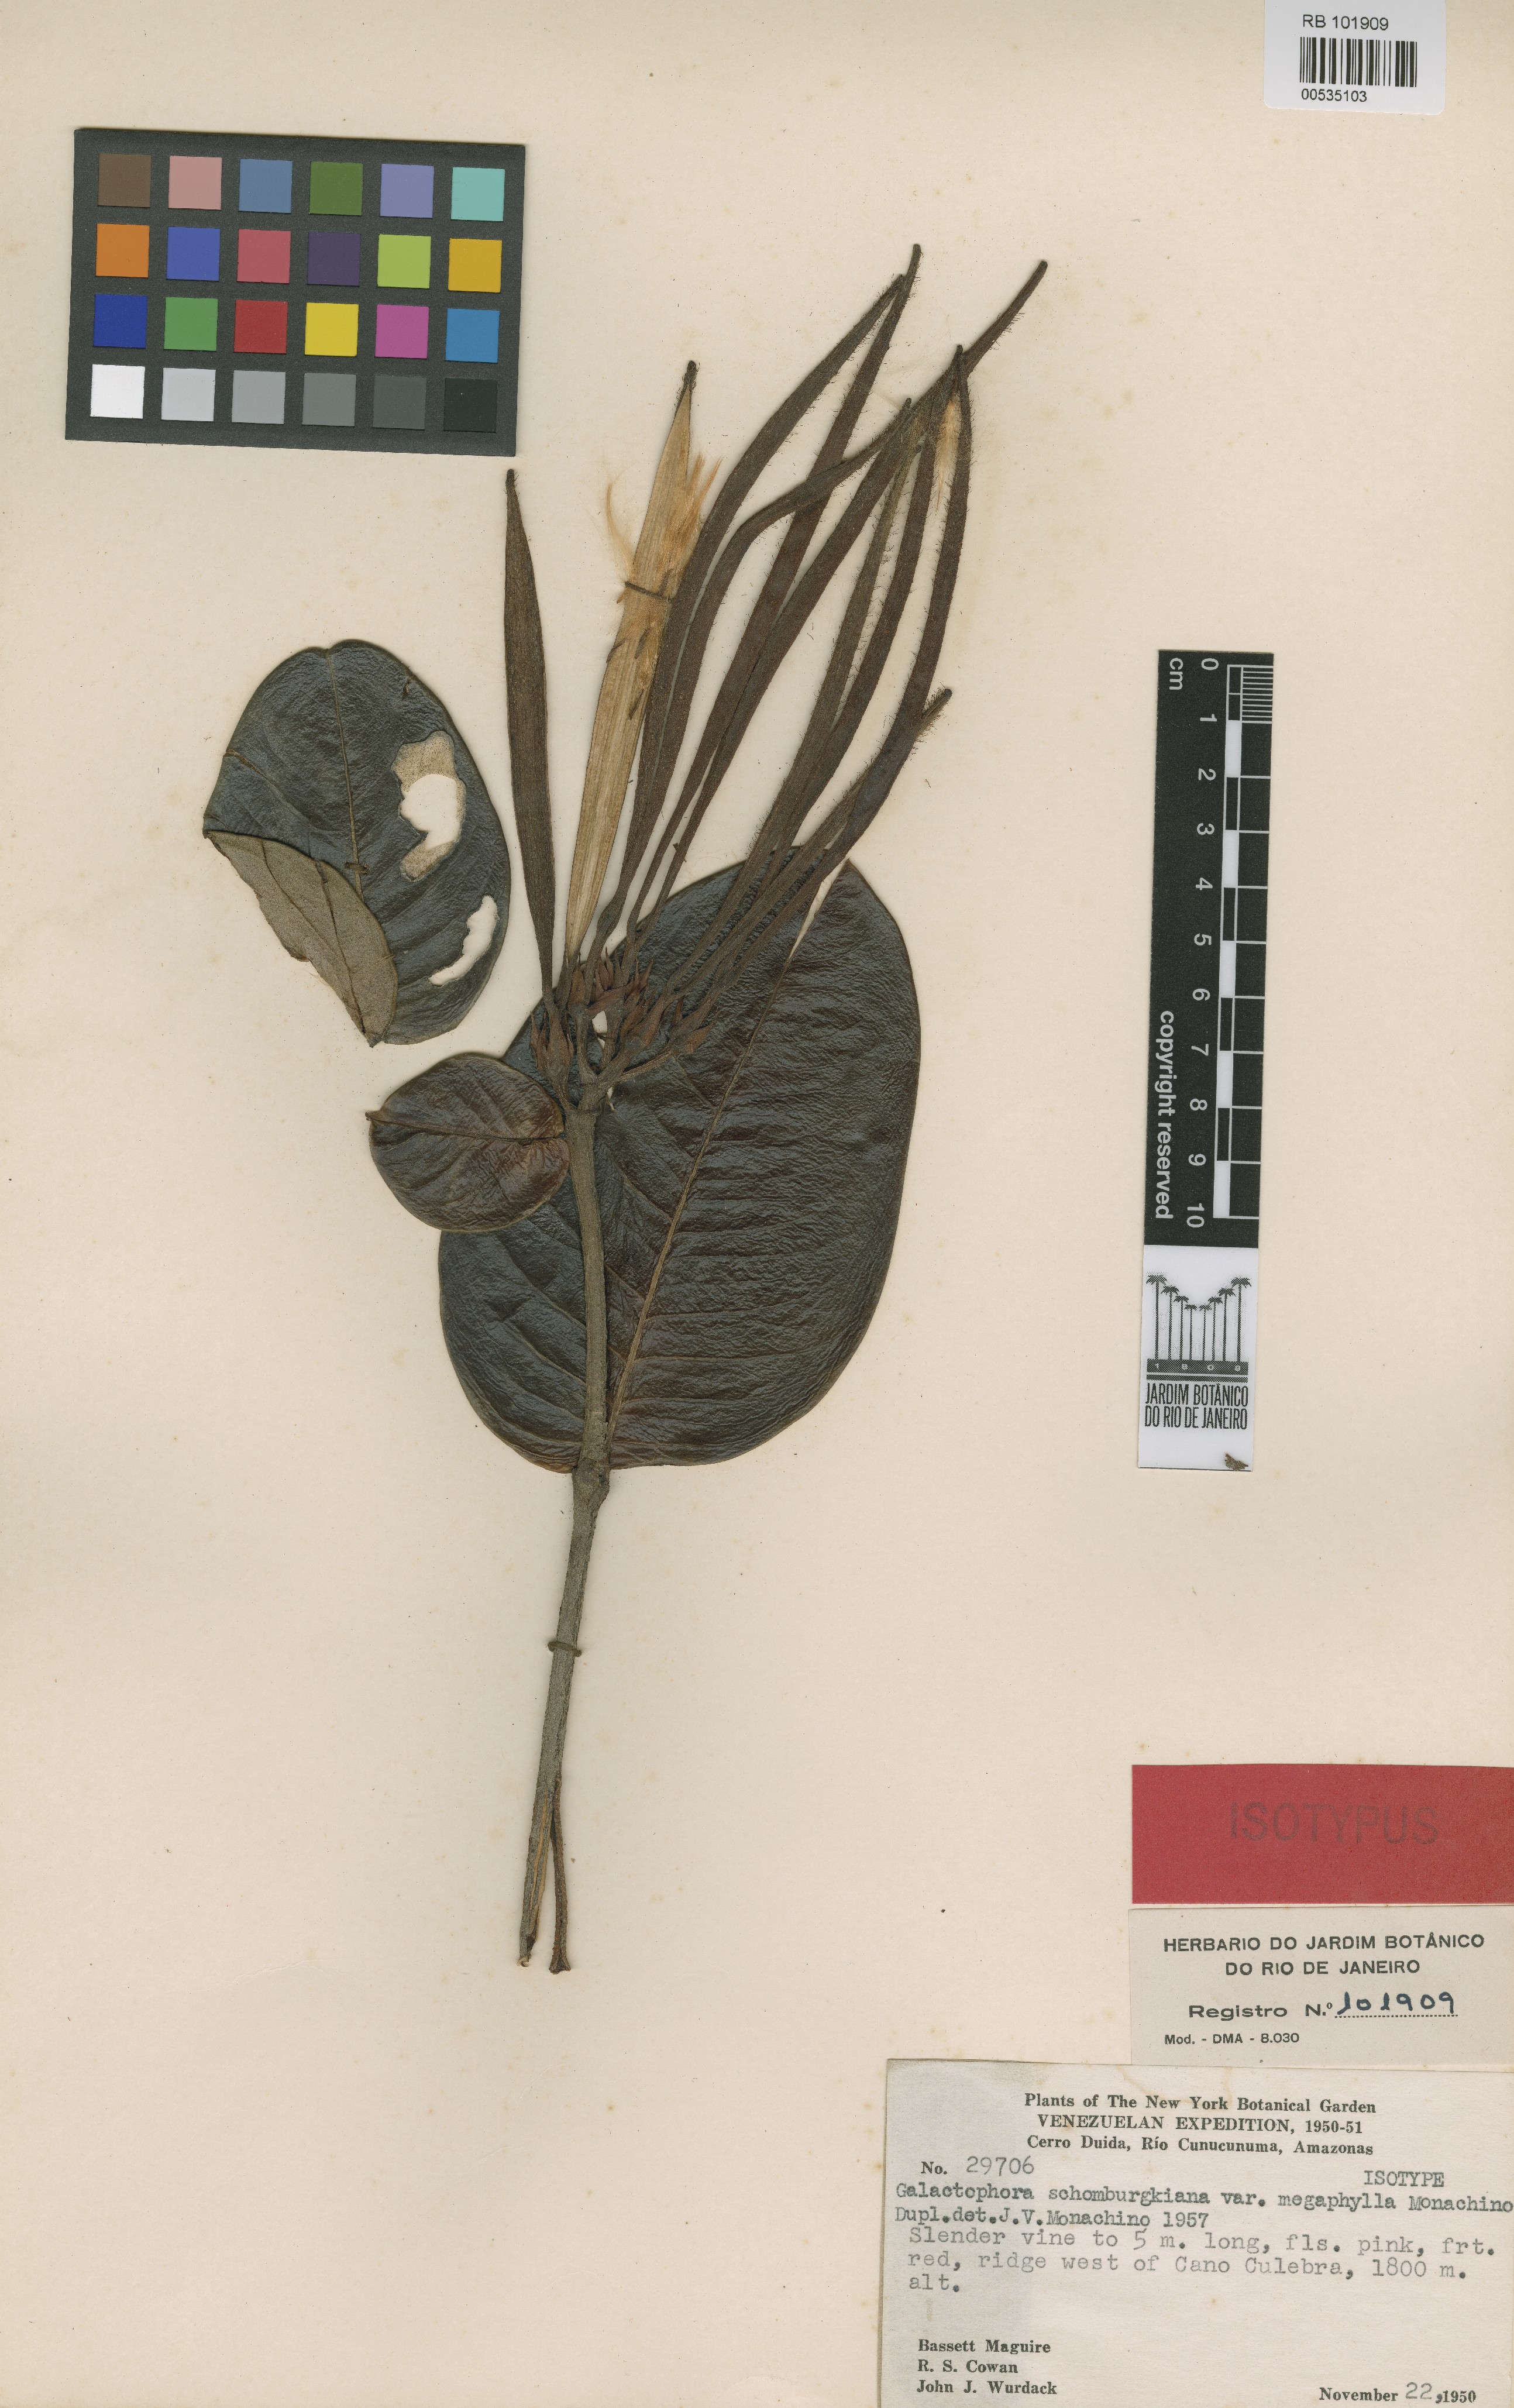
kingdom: Plantae
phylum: Tracheophyta
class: Magnoliopsida
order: Gentianales
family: Apocynaceae
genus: Galactophora
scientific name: Galactophora schomburgkiana
